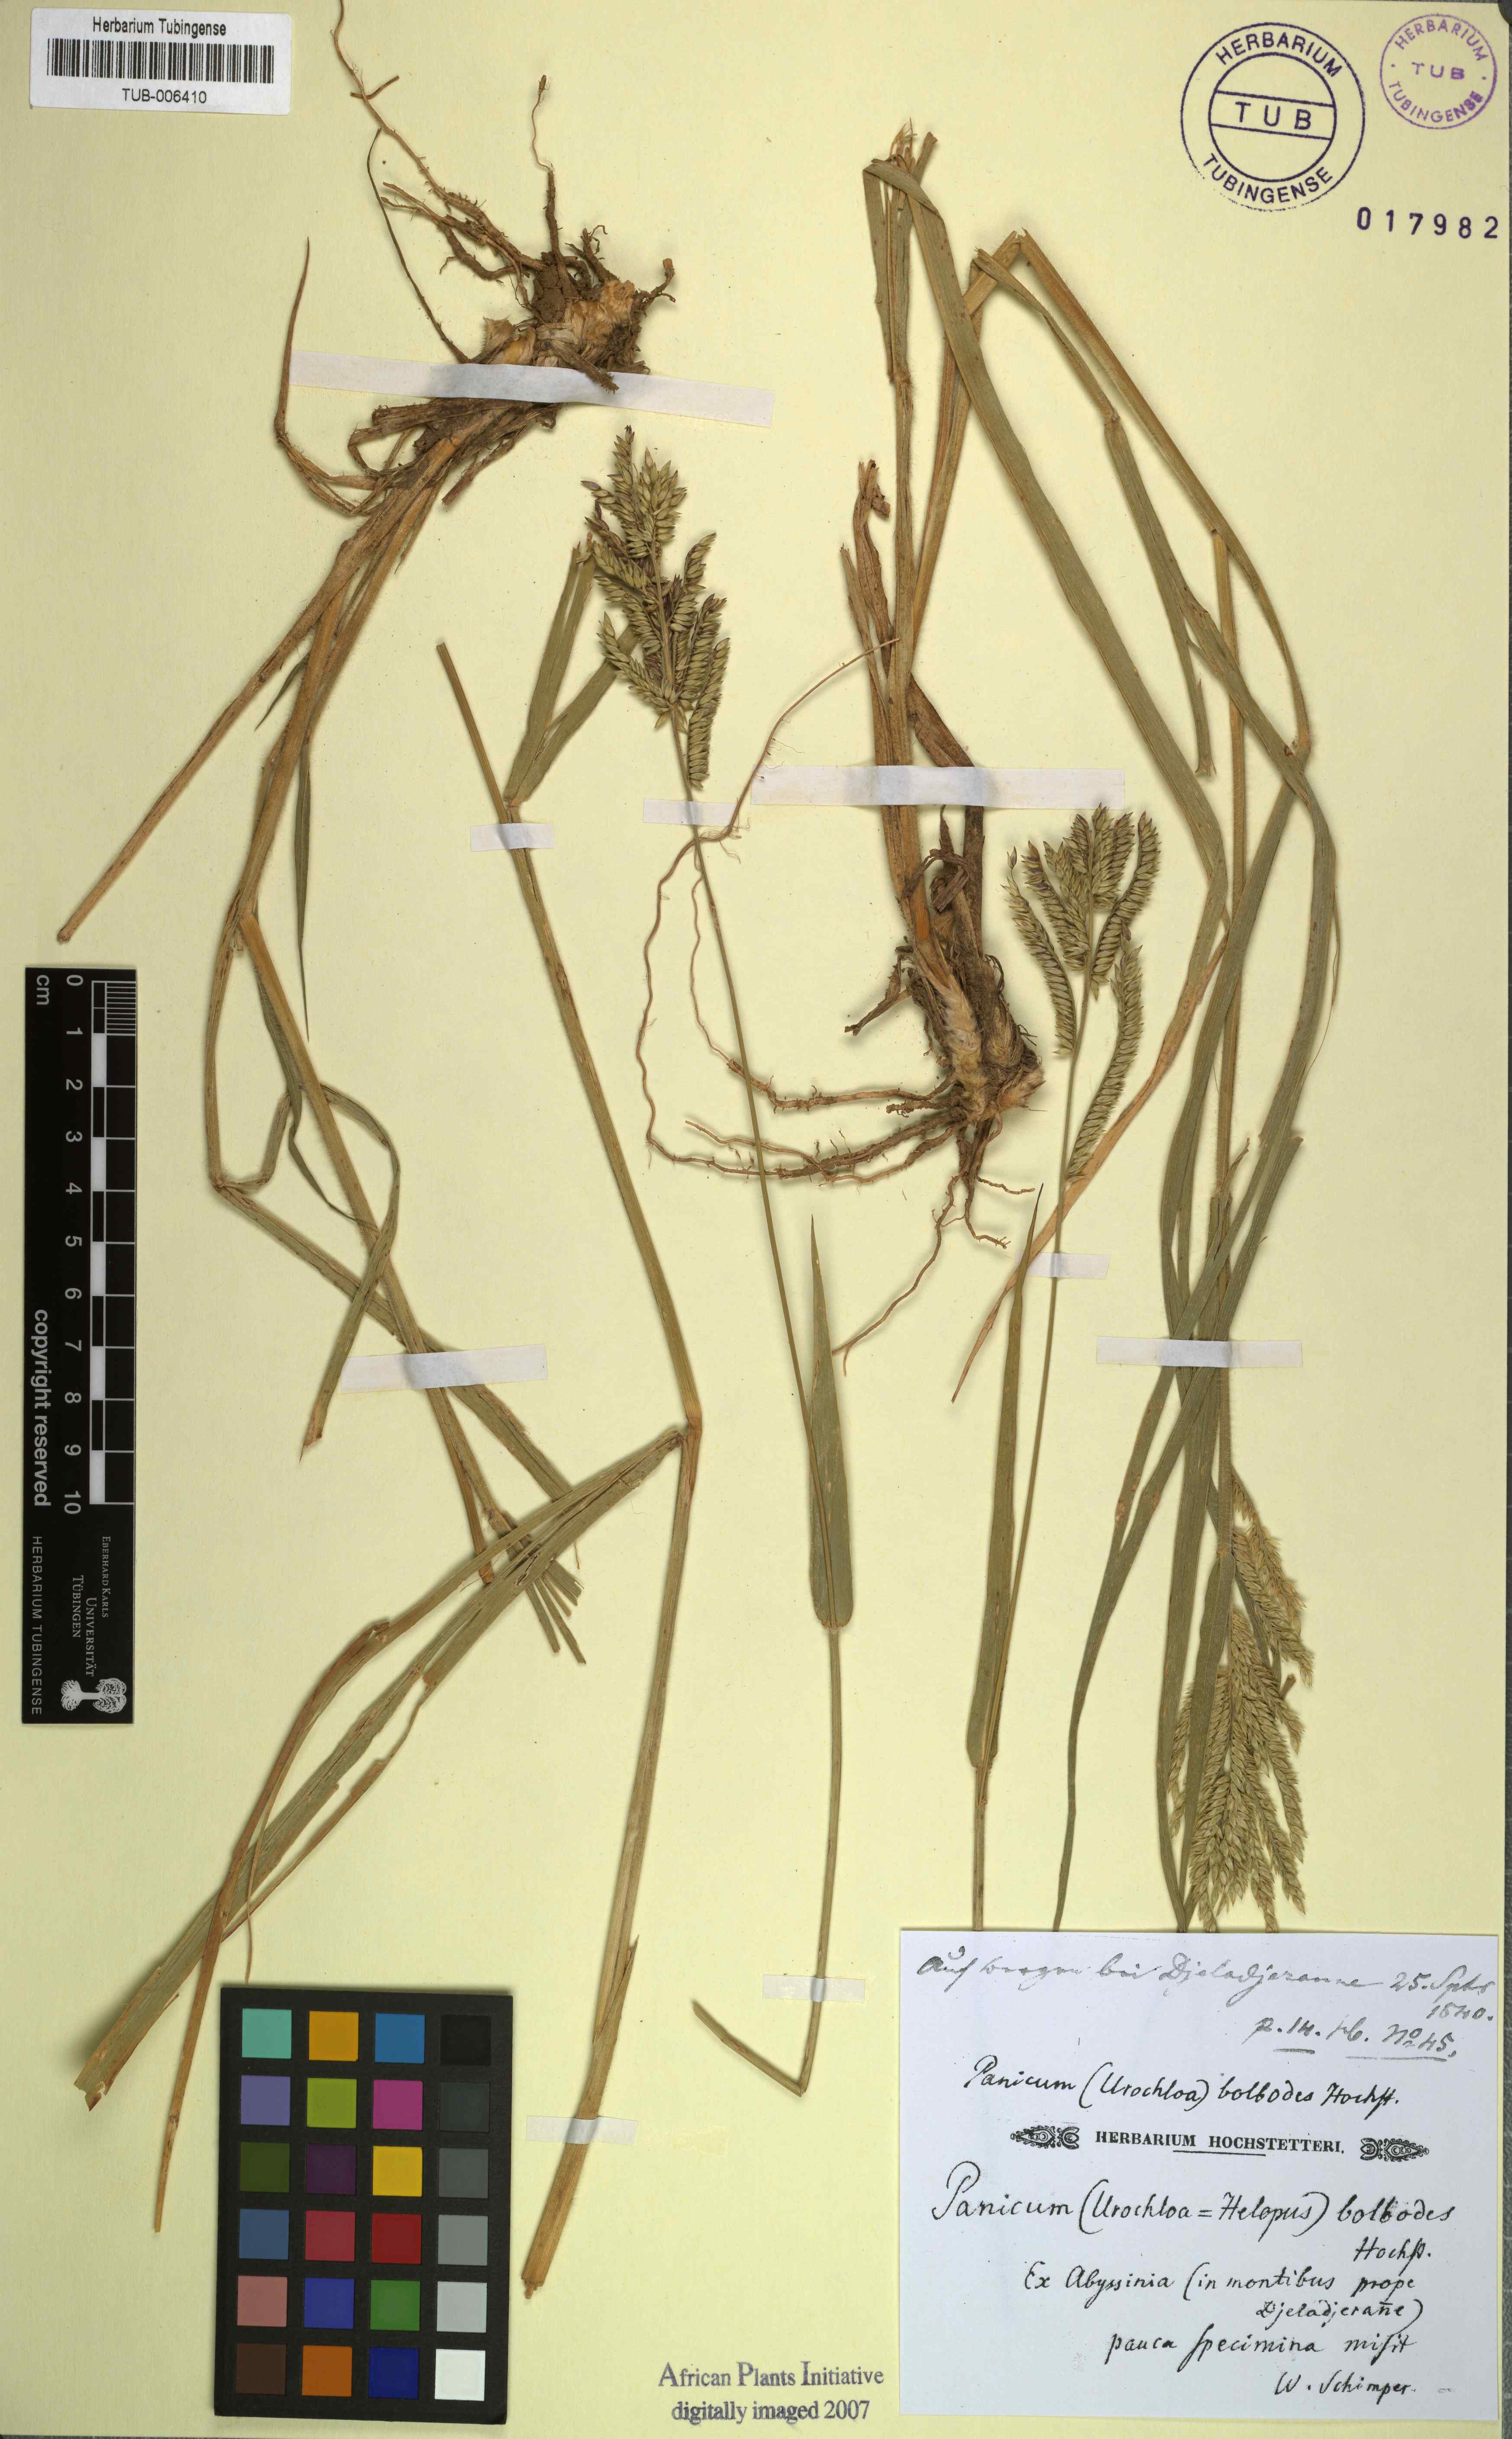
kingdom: Plantae
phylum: Tracheophyta
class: Liliopsida
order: Poales
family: Poaceae
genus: Urochloa
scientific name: Urochloa oligotricha
